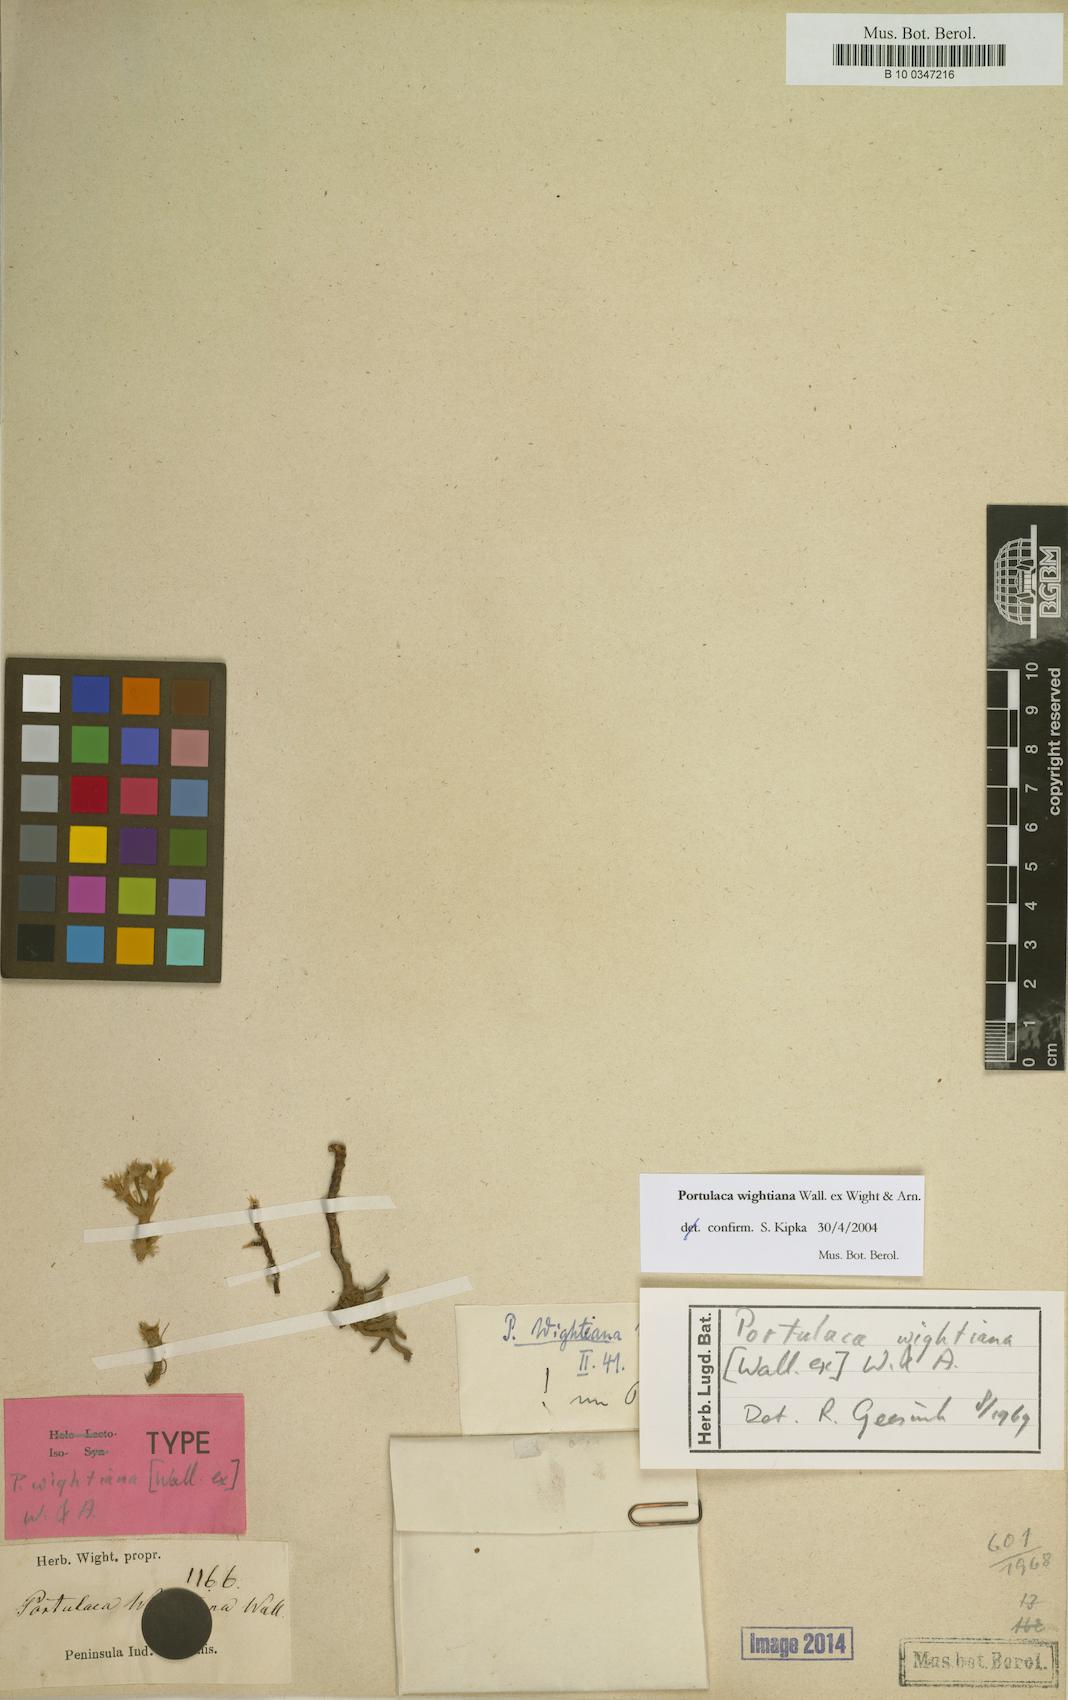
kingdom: Plantae
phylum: Tracheophyta
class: Magnoliopsida
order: Caryophyllales
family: Portulacaceae
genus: Portulaca
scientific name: Portulaca wightiana
